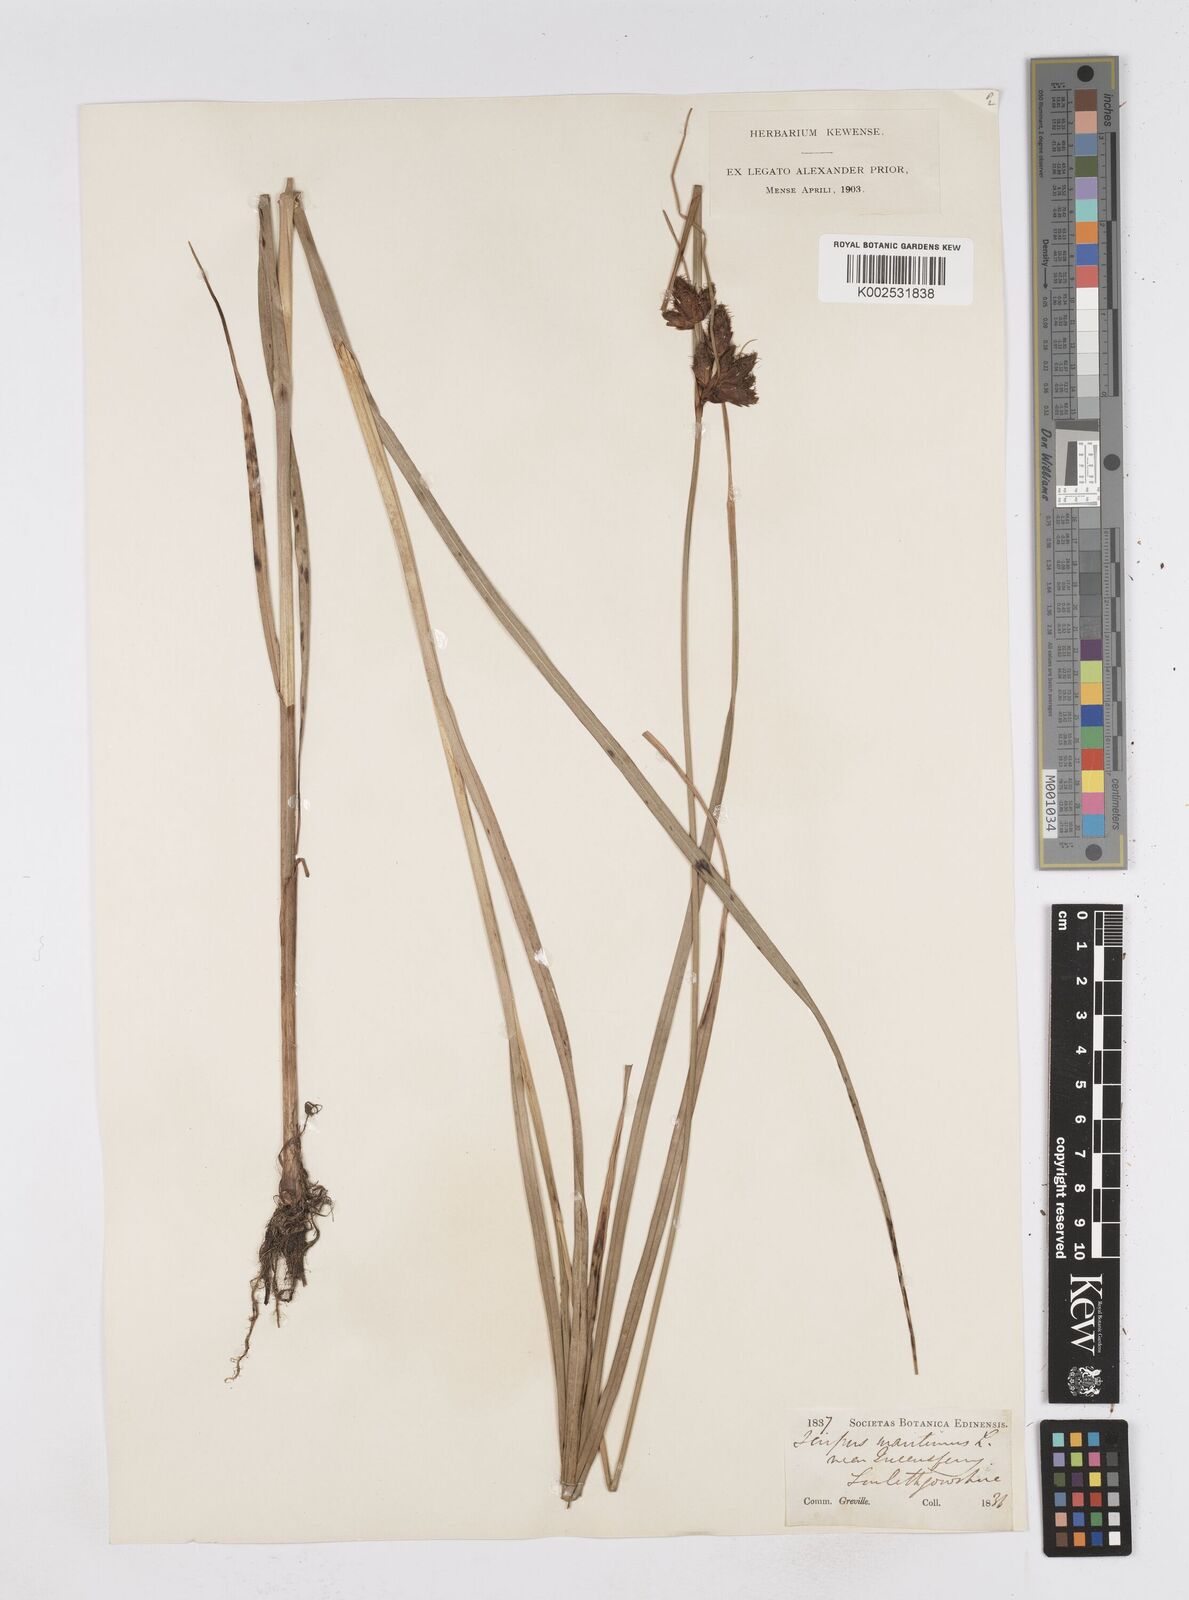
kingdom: Plantae
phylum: Tracheophyta
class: Liliopsida
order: Poales
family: Cyperaceae
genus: Bolboschoenus
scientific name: Bolboschoenus maritimus
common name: Sea club-rush
